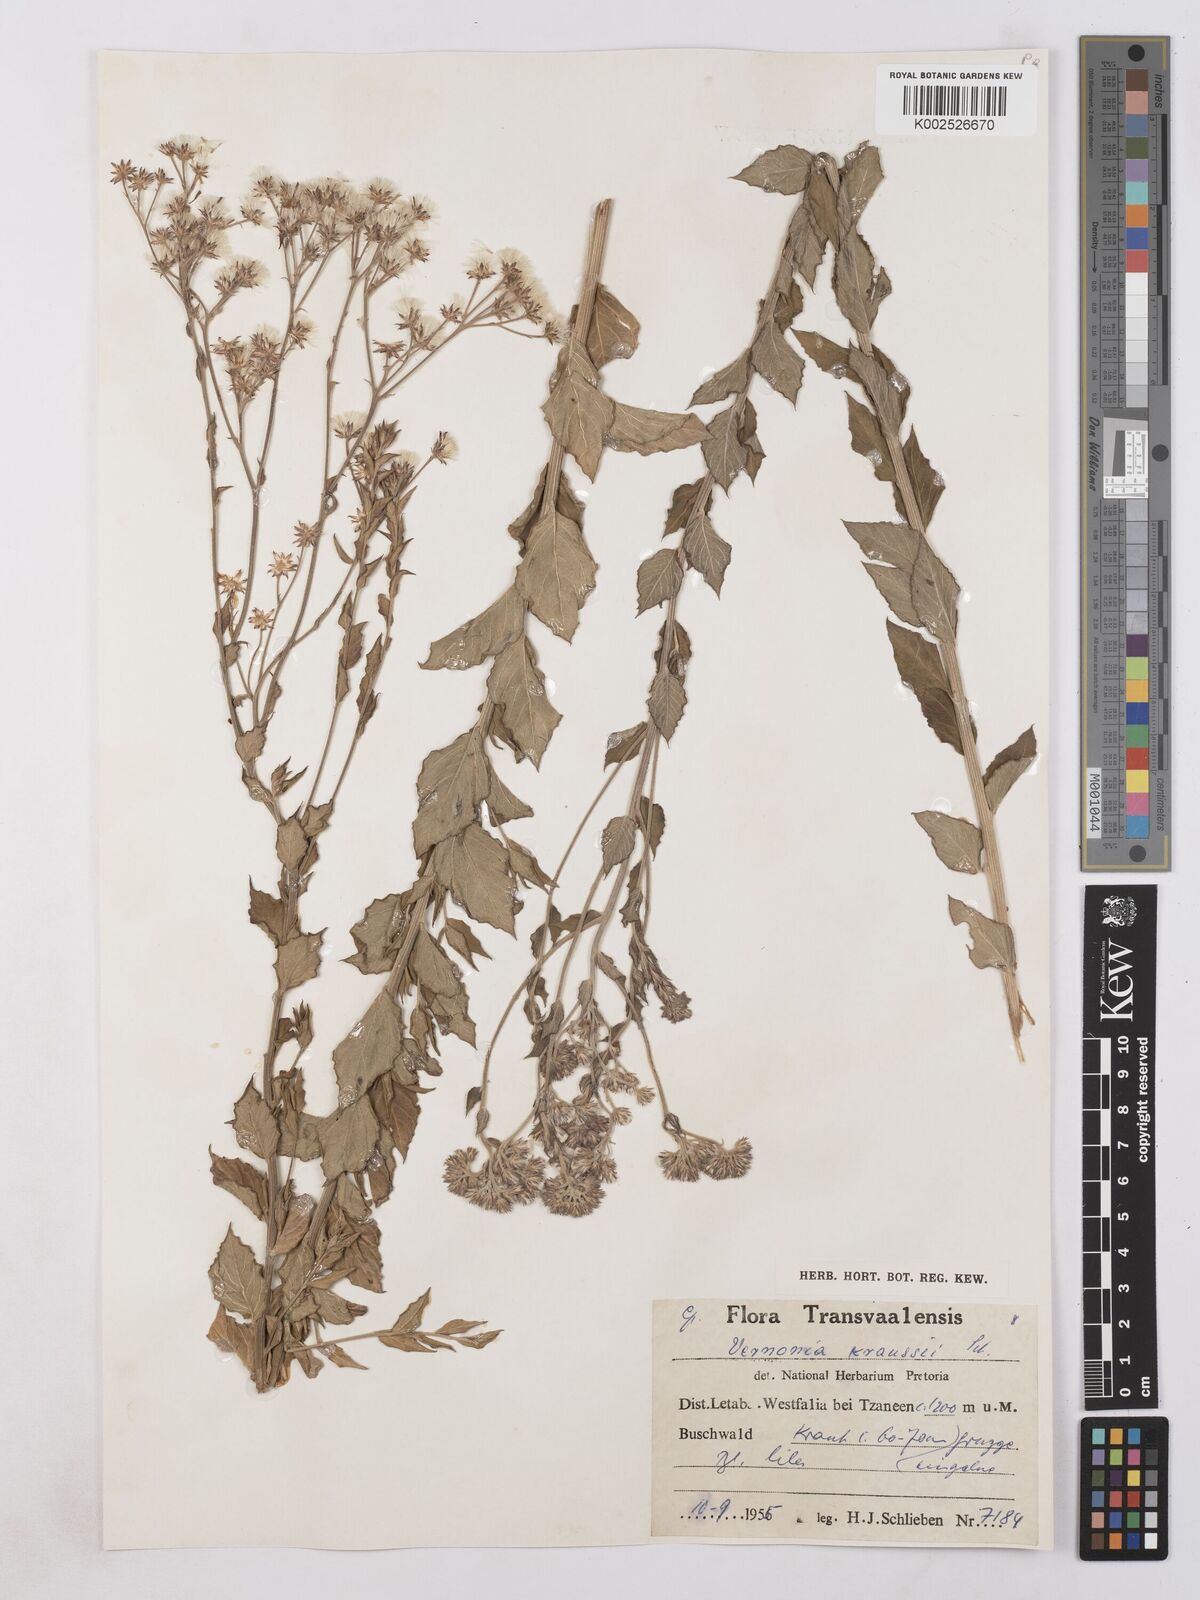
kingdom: Plantae
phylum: Tracheophyta
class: Magnoliopsida
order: Asterales
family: Asteraceae
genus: Hilliardiella
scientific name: Hilliardiella oligocephala
